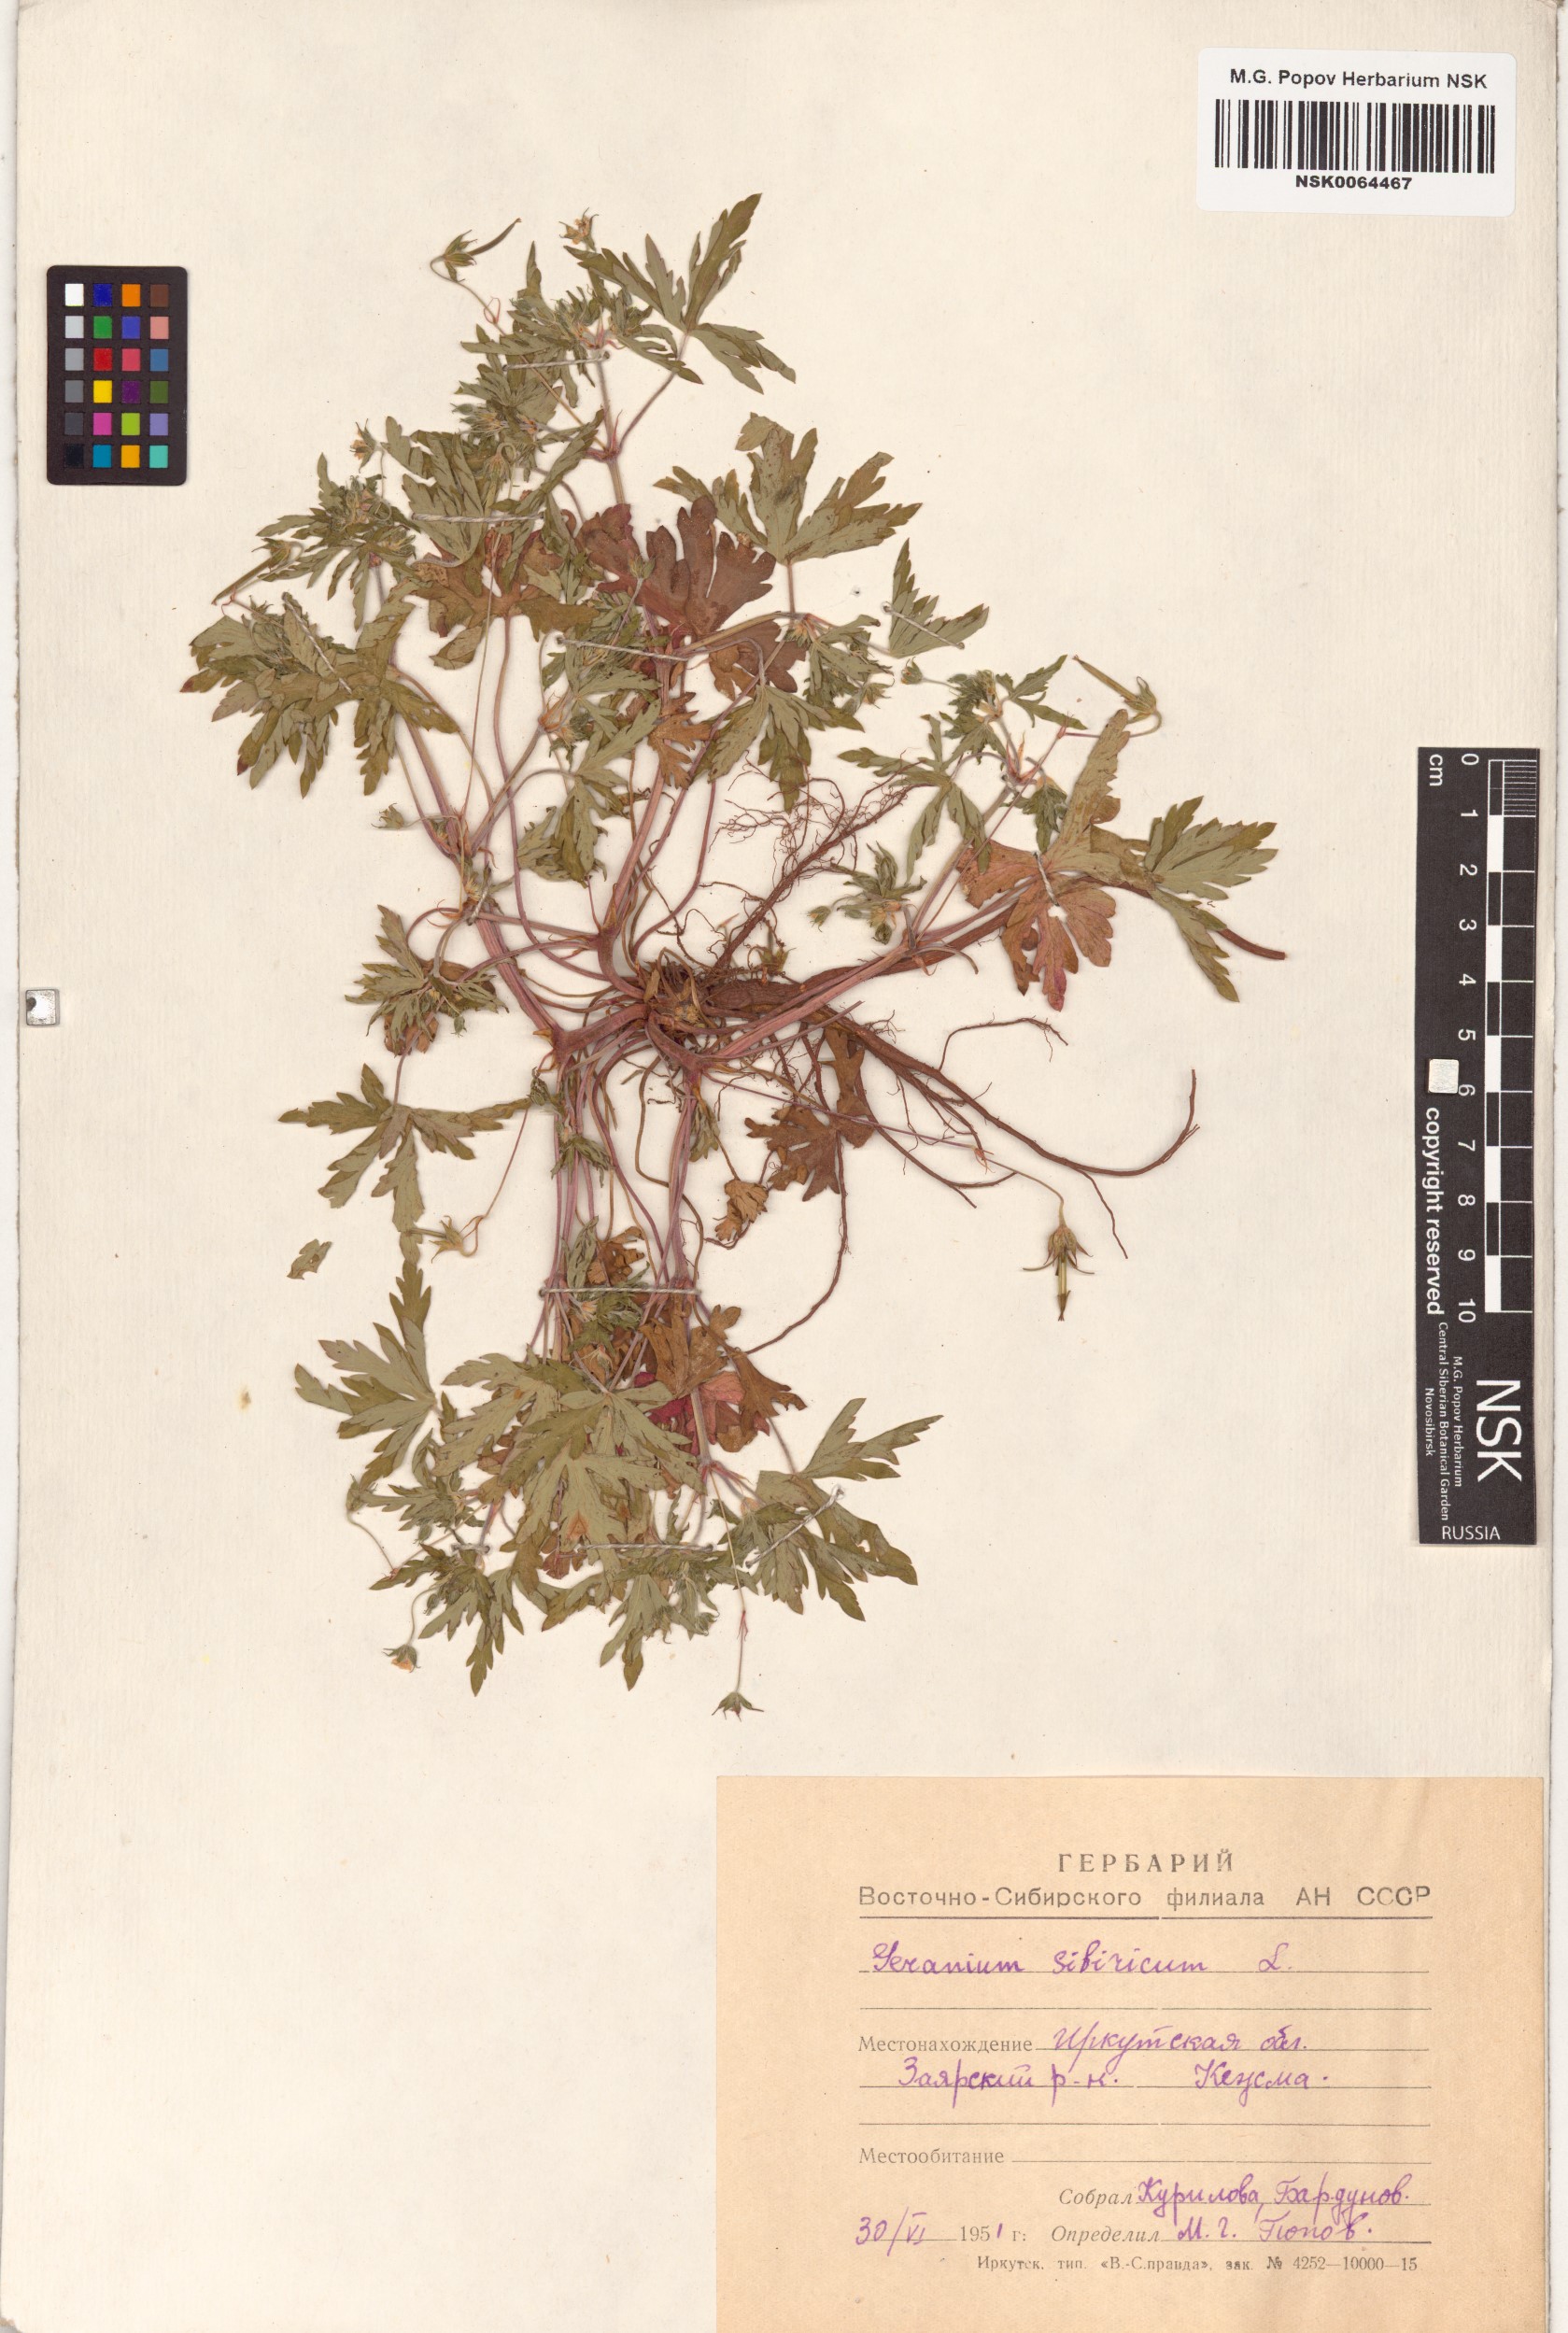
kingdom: Plantae
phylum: Tracheophyta
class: Magnoliopsida
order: Geraniales
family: Geraniaceae
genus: Geranium
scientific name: Geranium sibiricum
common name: Siberian crane's-bill
